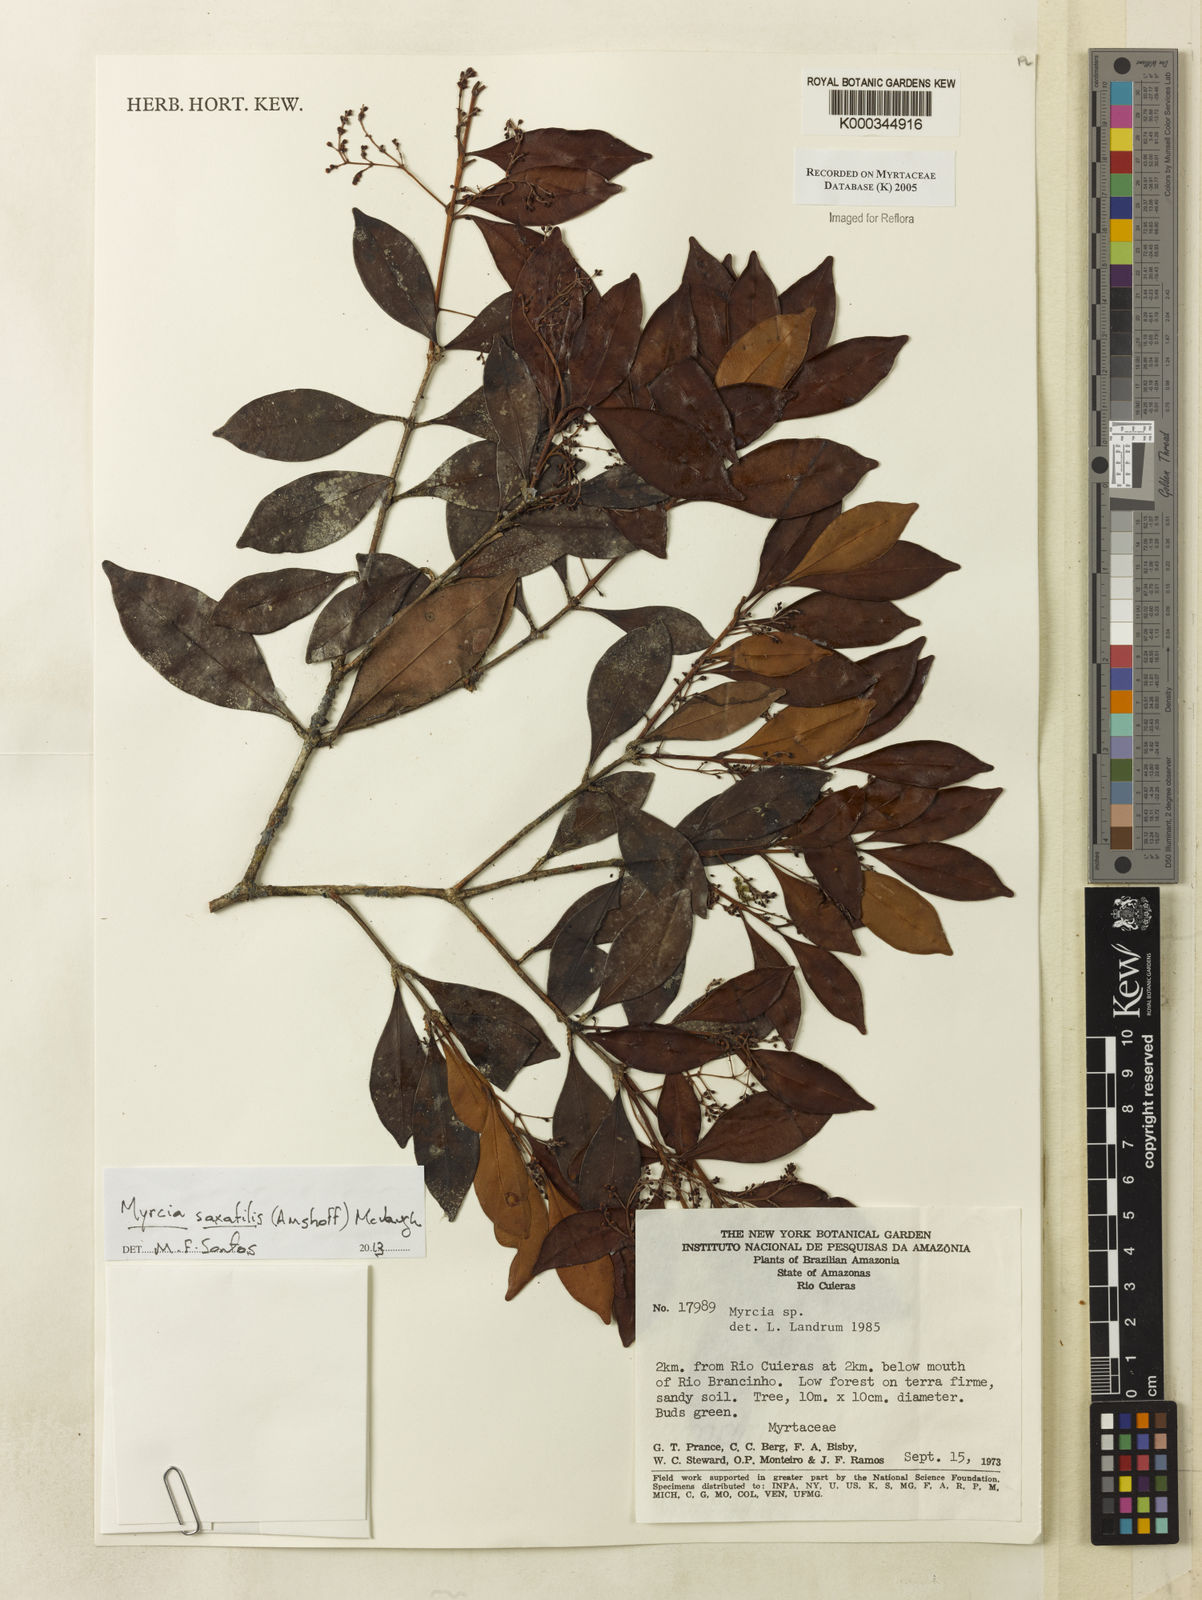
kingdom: Plantae
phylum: Tracheophyta
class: Magnoliopsida
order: Myrtales
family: Myrtaceae
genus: Myrcia
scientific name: Myrcia
